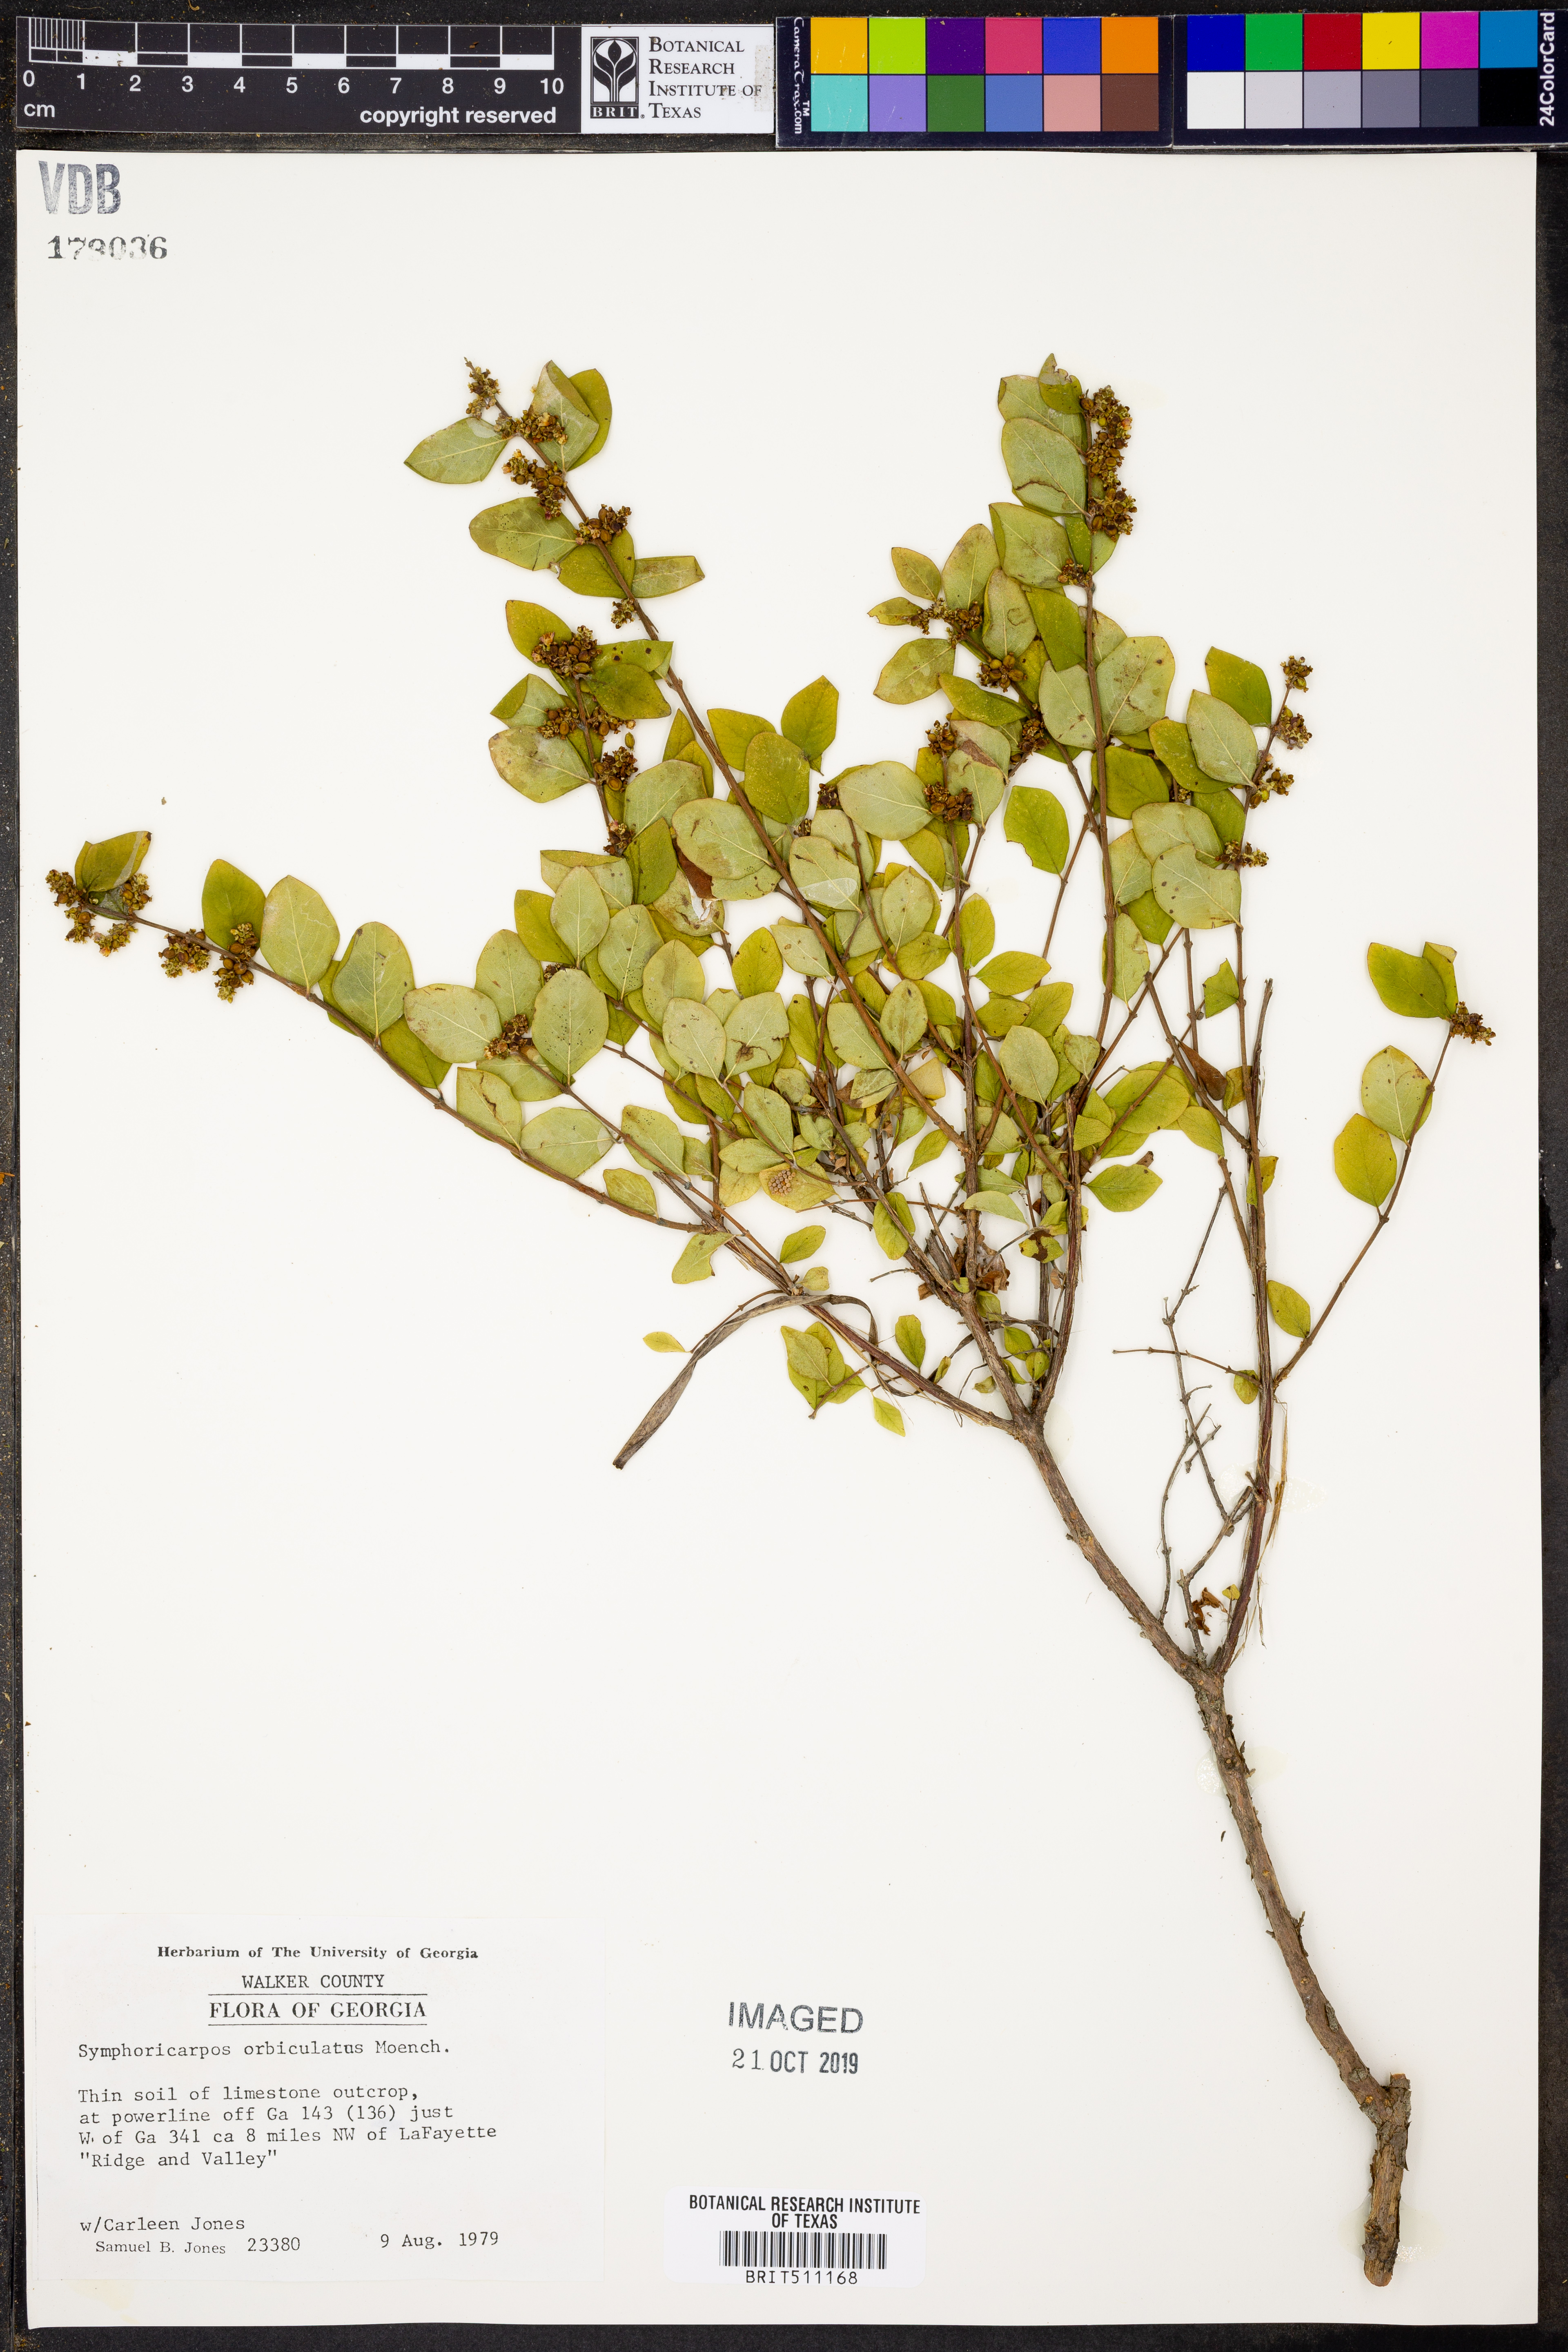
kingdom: Plantae
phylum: Tracheophyta
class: Magnoliopsida
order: Dipsacales
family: Caprifoliaceae
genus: Symphoricarpos
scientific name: Symphoricarpos orbiculatus
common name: Coralberry
